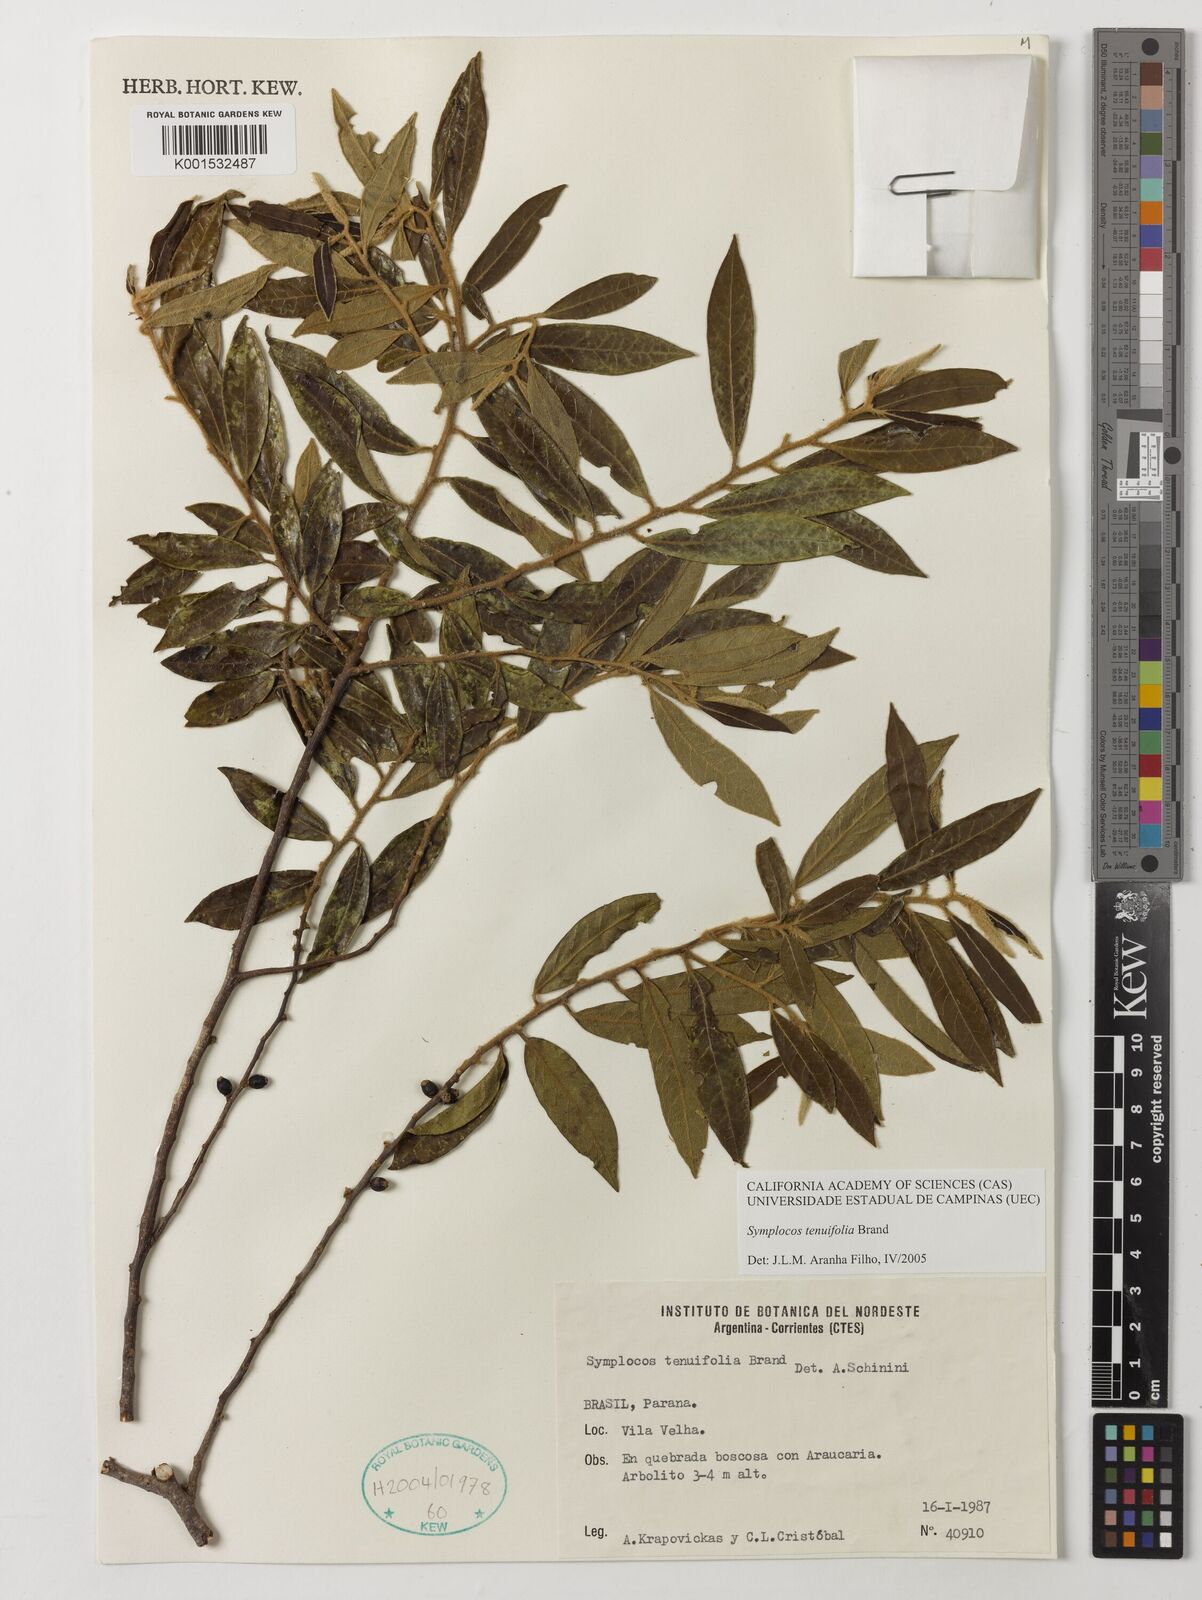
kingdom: Plantae
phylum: Tracheophyta
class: Magnoliopsida
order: Ericales
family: Symplocaceae
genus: Symplocos
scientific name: Symplocos tenuifolia
